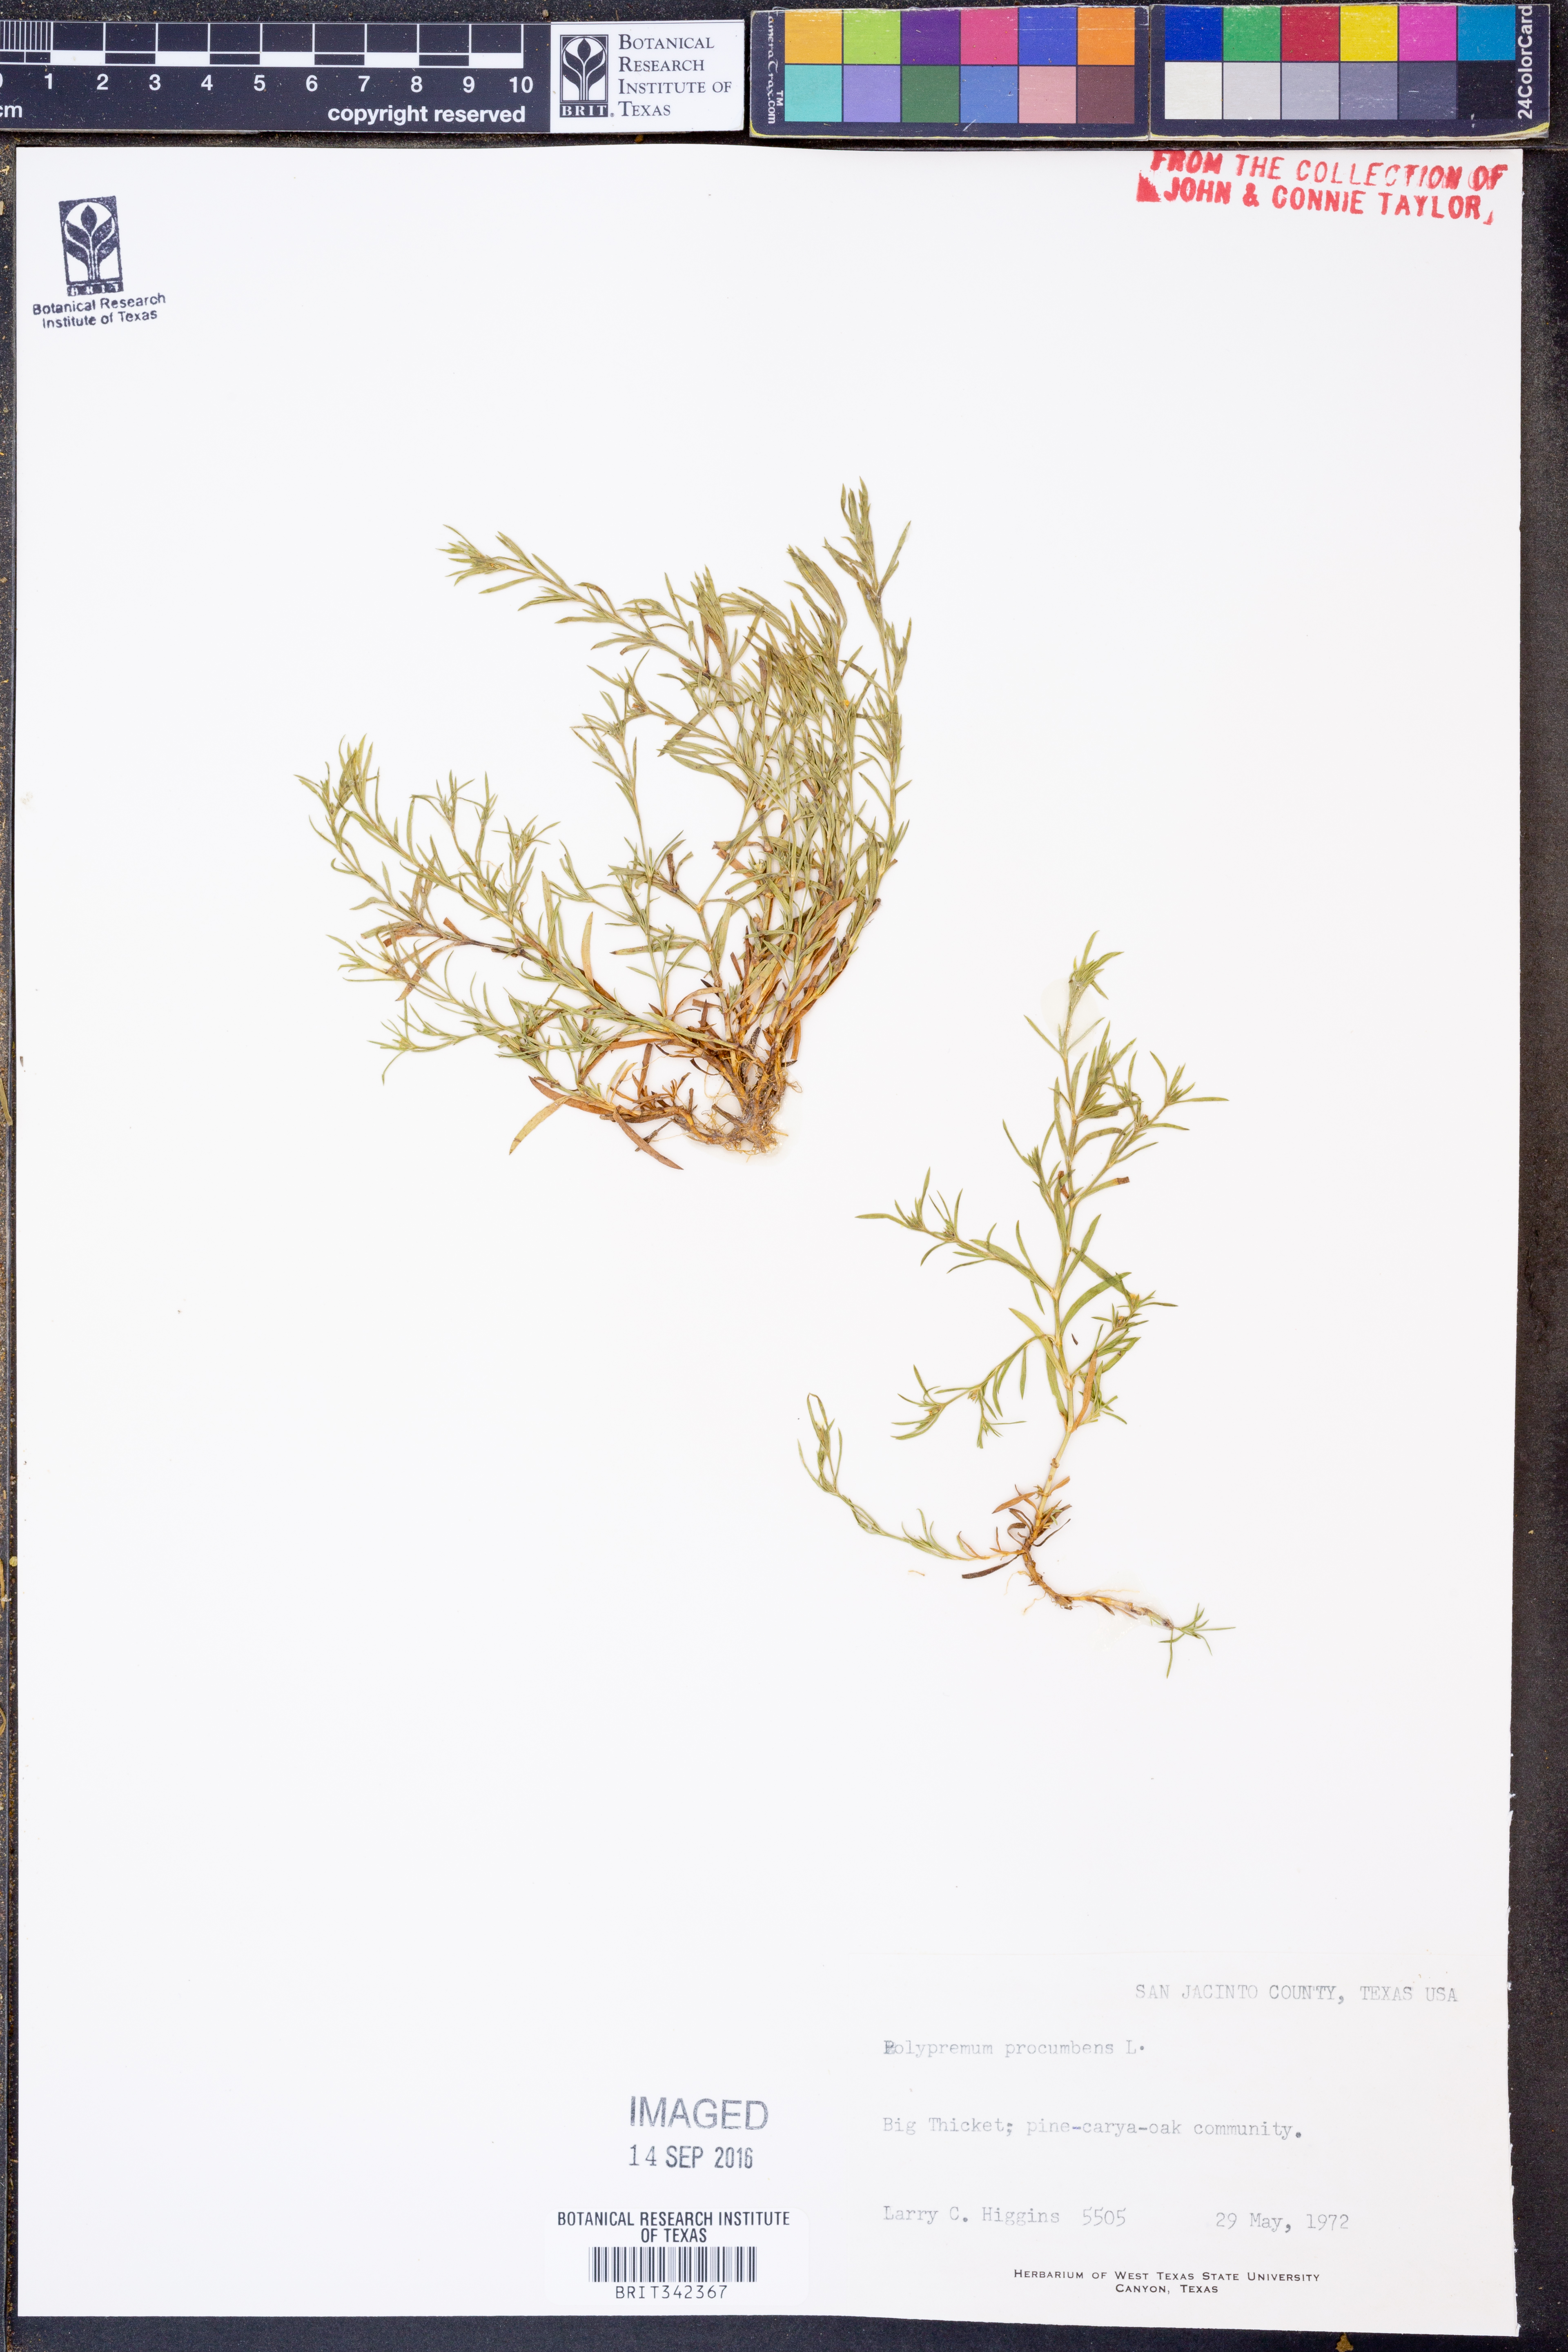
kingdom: Plantae
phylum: Tracheophyta
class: Magnoliopsida
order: Lamiales
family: Tetrachondraceae
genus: Polypremum
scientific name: Polypremum procumbens
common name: Juniper-leaf
